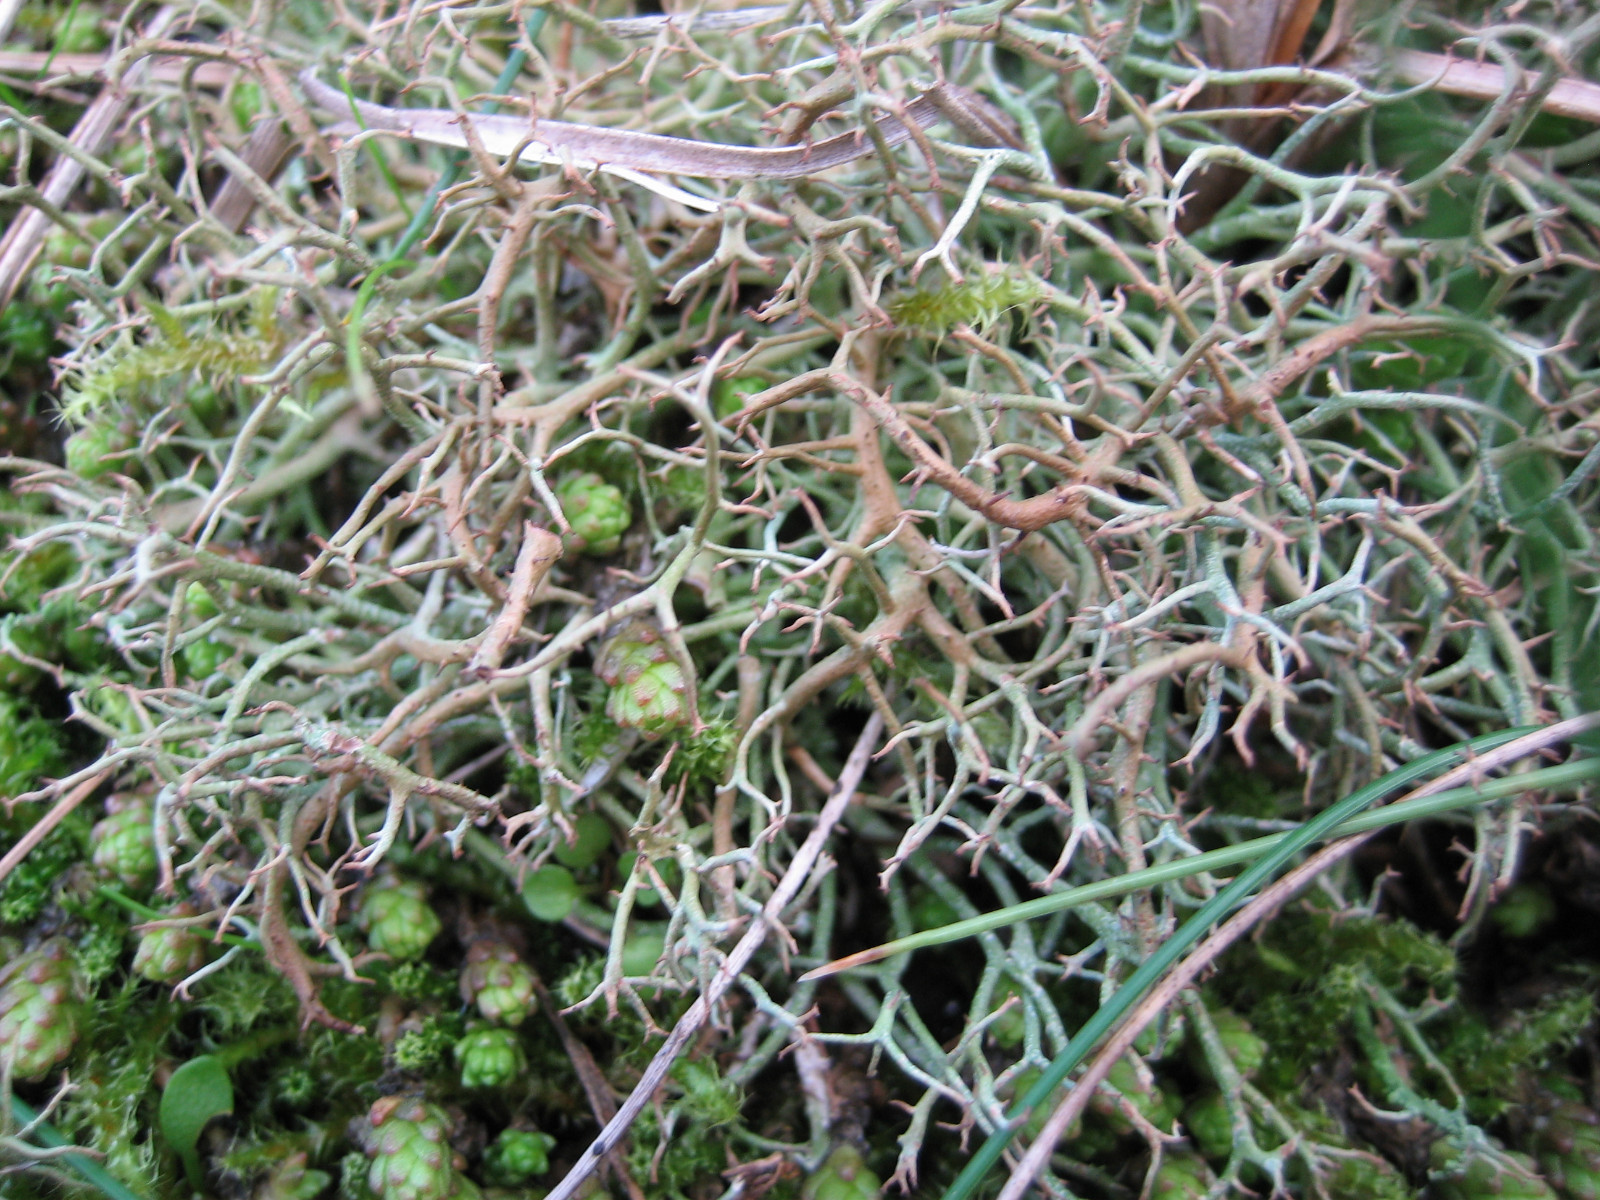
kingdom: Fungi
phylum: Ascomycota
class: Lecanoromycetes
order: Lecanorales
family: Cladoniaceae
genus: Cladonia
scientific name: Cladonia furcata
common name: kløftet bægerlav
